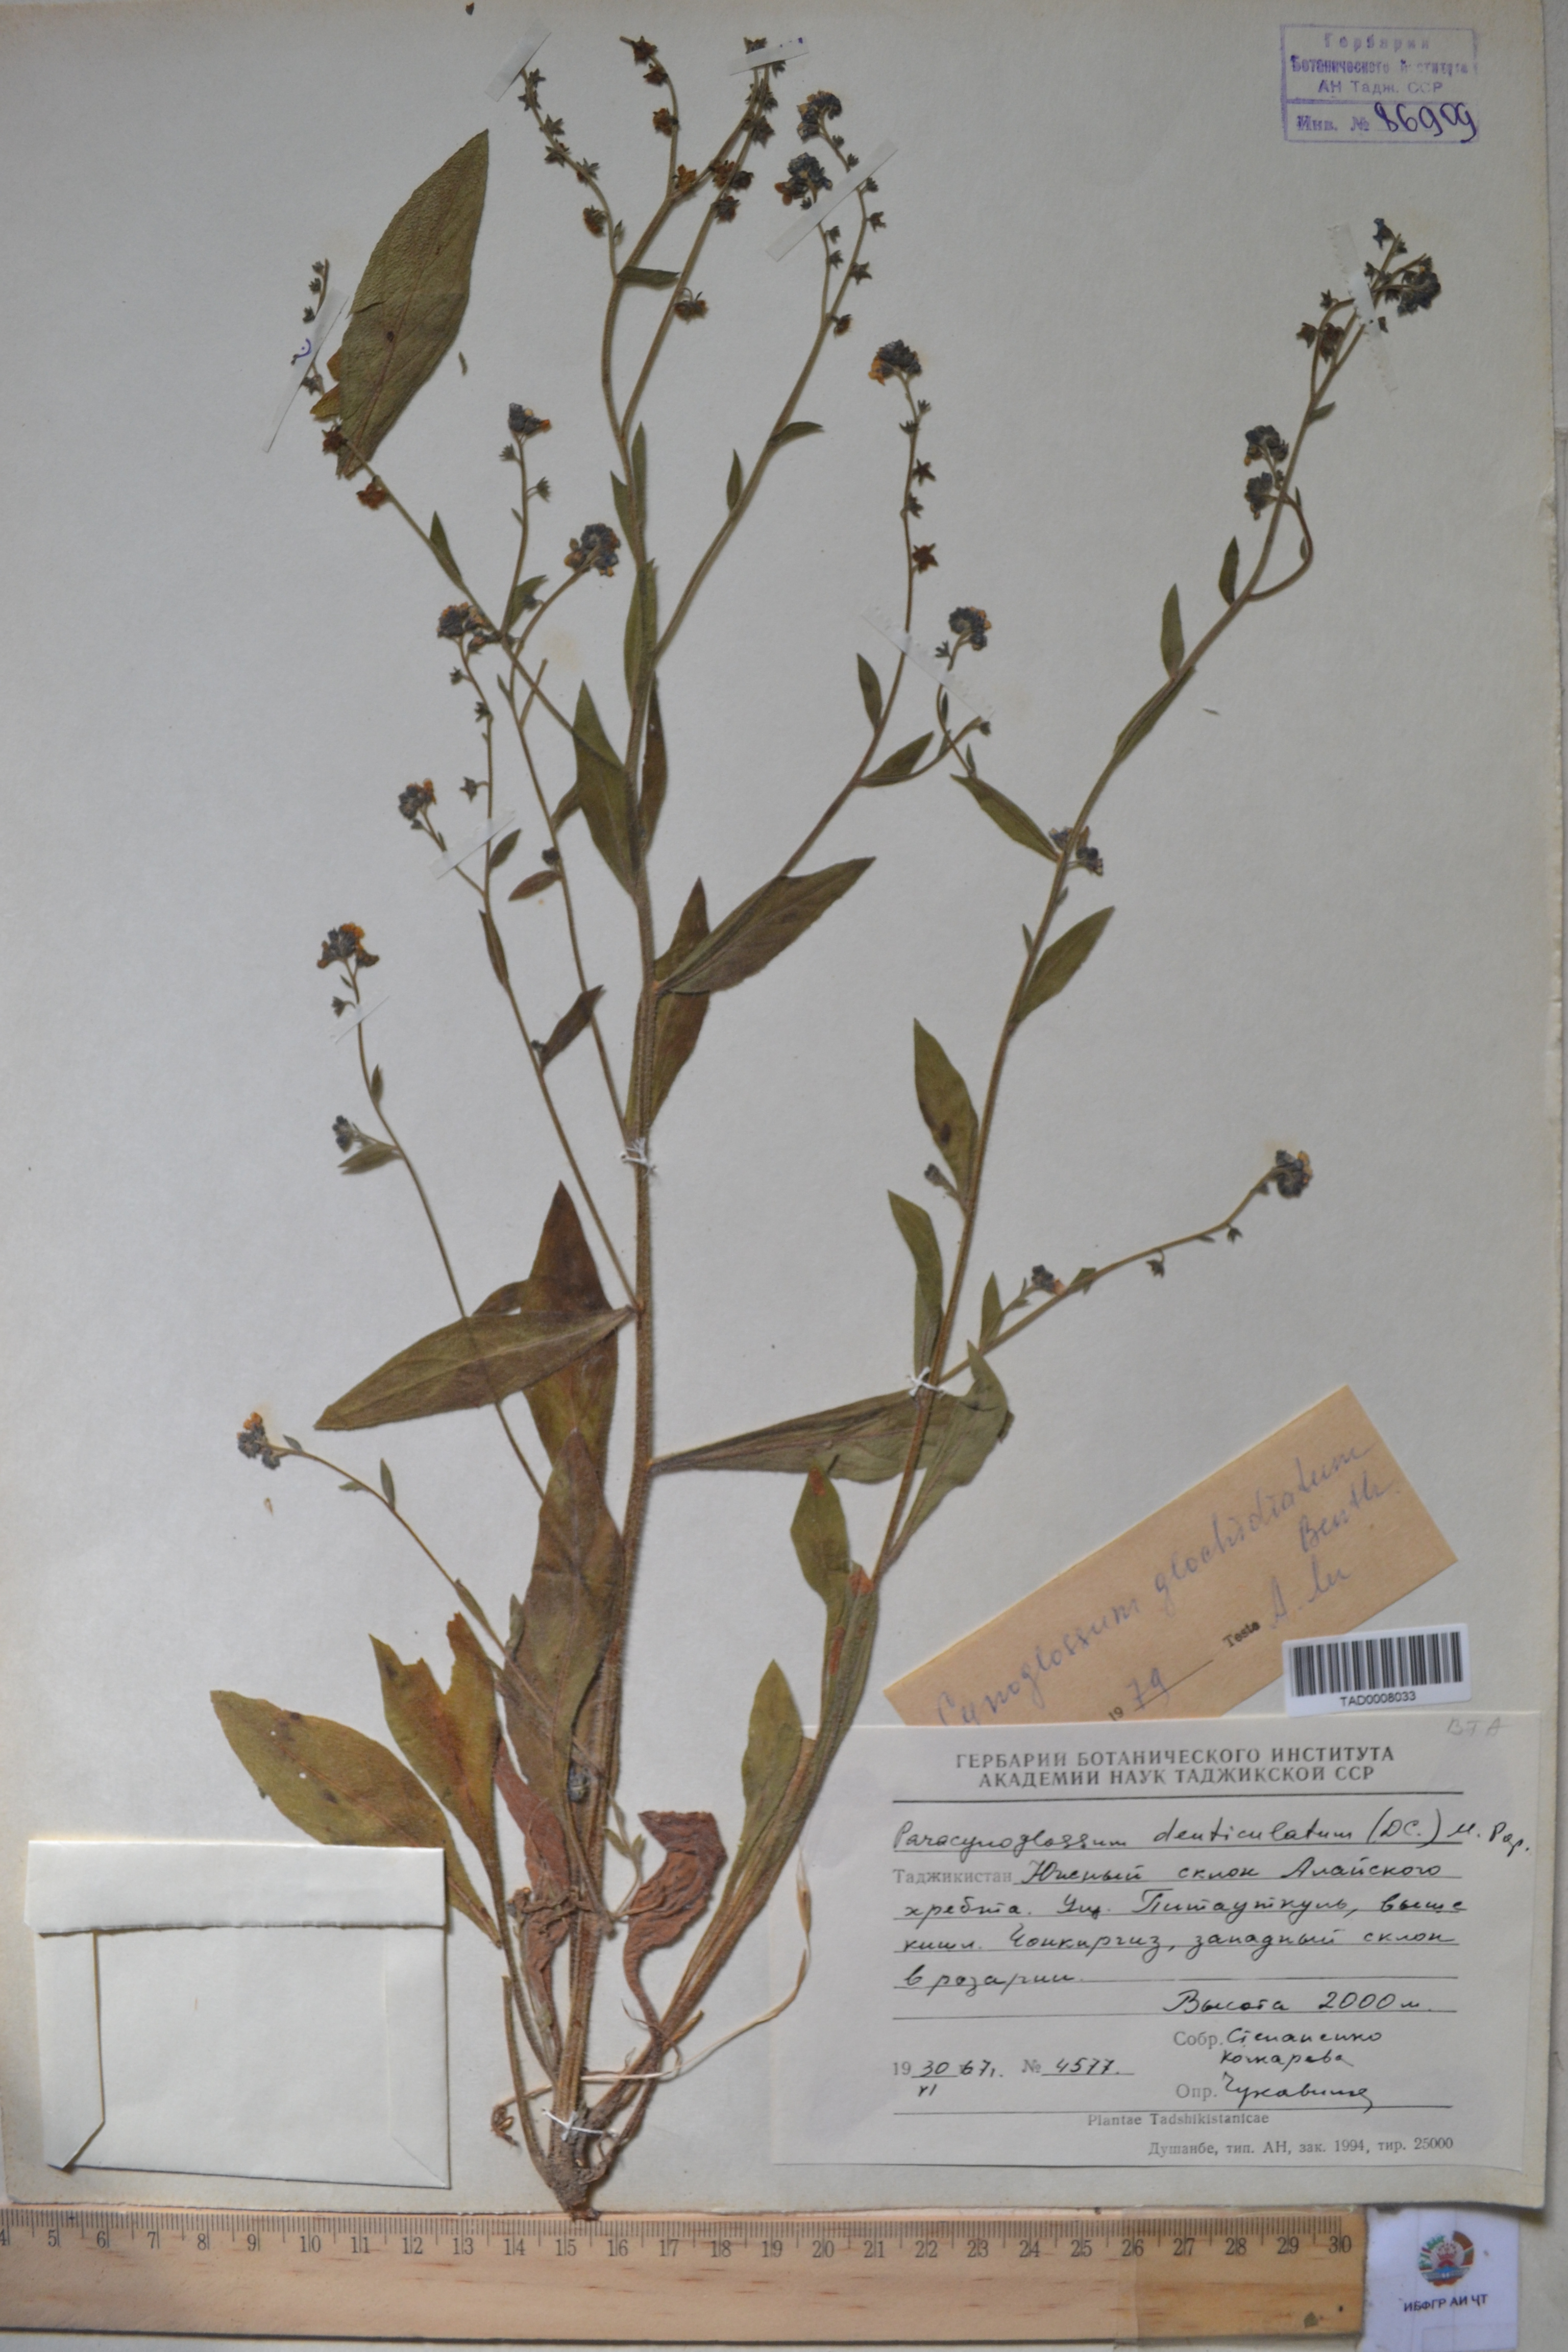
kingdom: Plantae
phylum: Tracheophyta
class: Magnoliopsida
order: Boraginales
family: Boraginaceae
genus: Paracynoglossum
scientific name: Paracynoglossum glochidiatum
